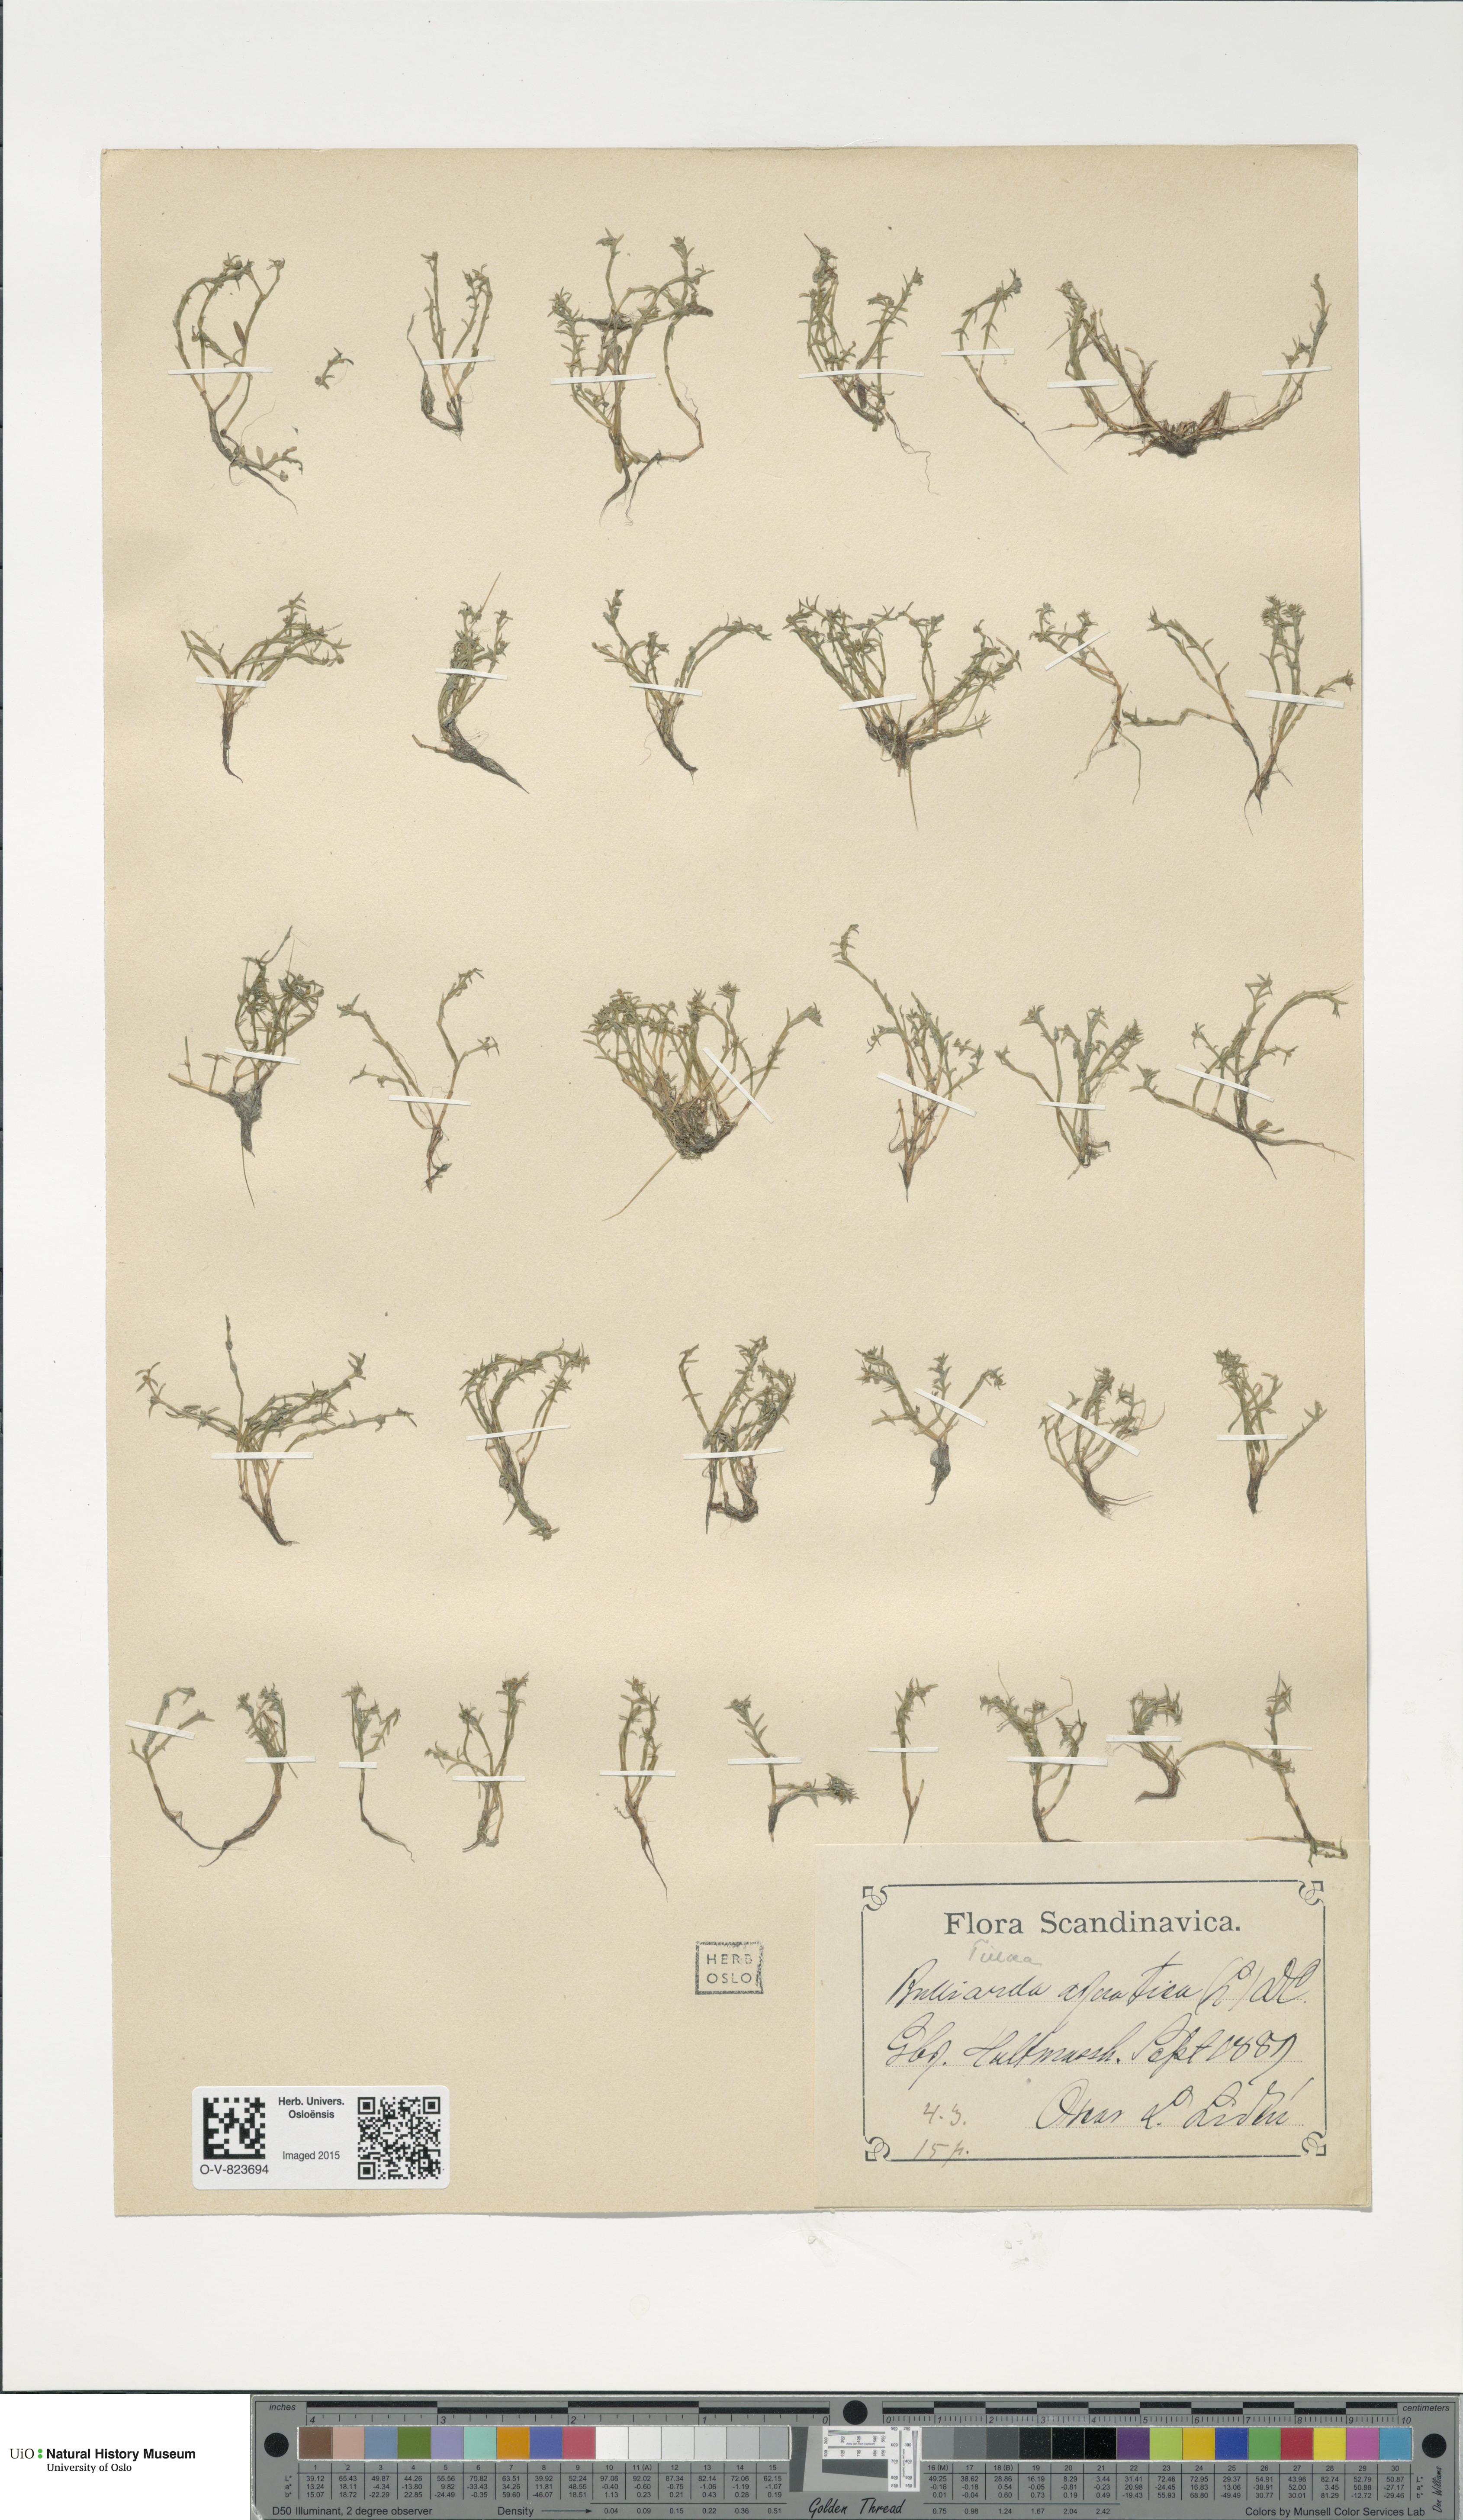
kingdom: Plantae
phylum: Tracheophyta
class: Magnoliopsida
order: Saxifragales
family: Crassulaceae
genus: Crassula
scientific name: Crassula aquatica
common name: Pigmyweed
